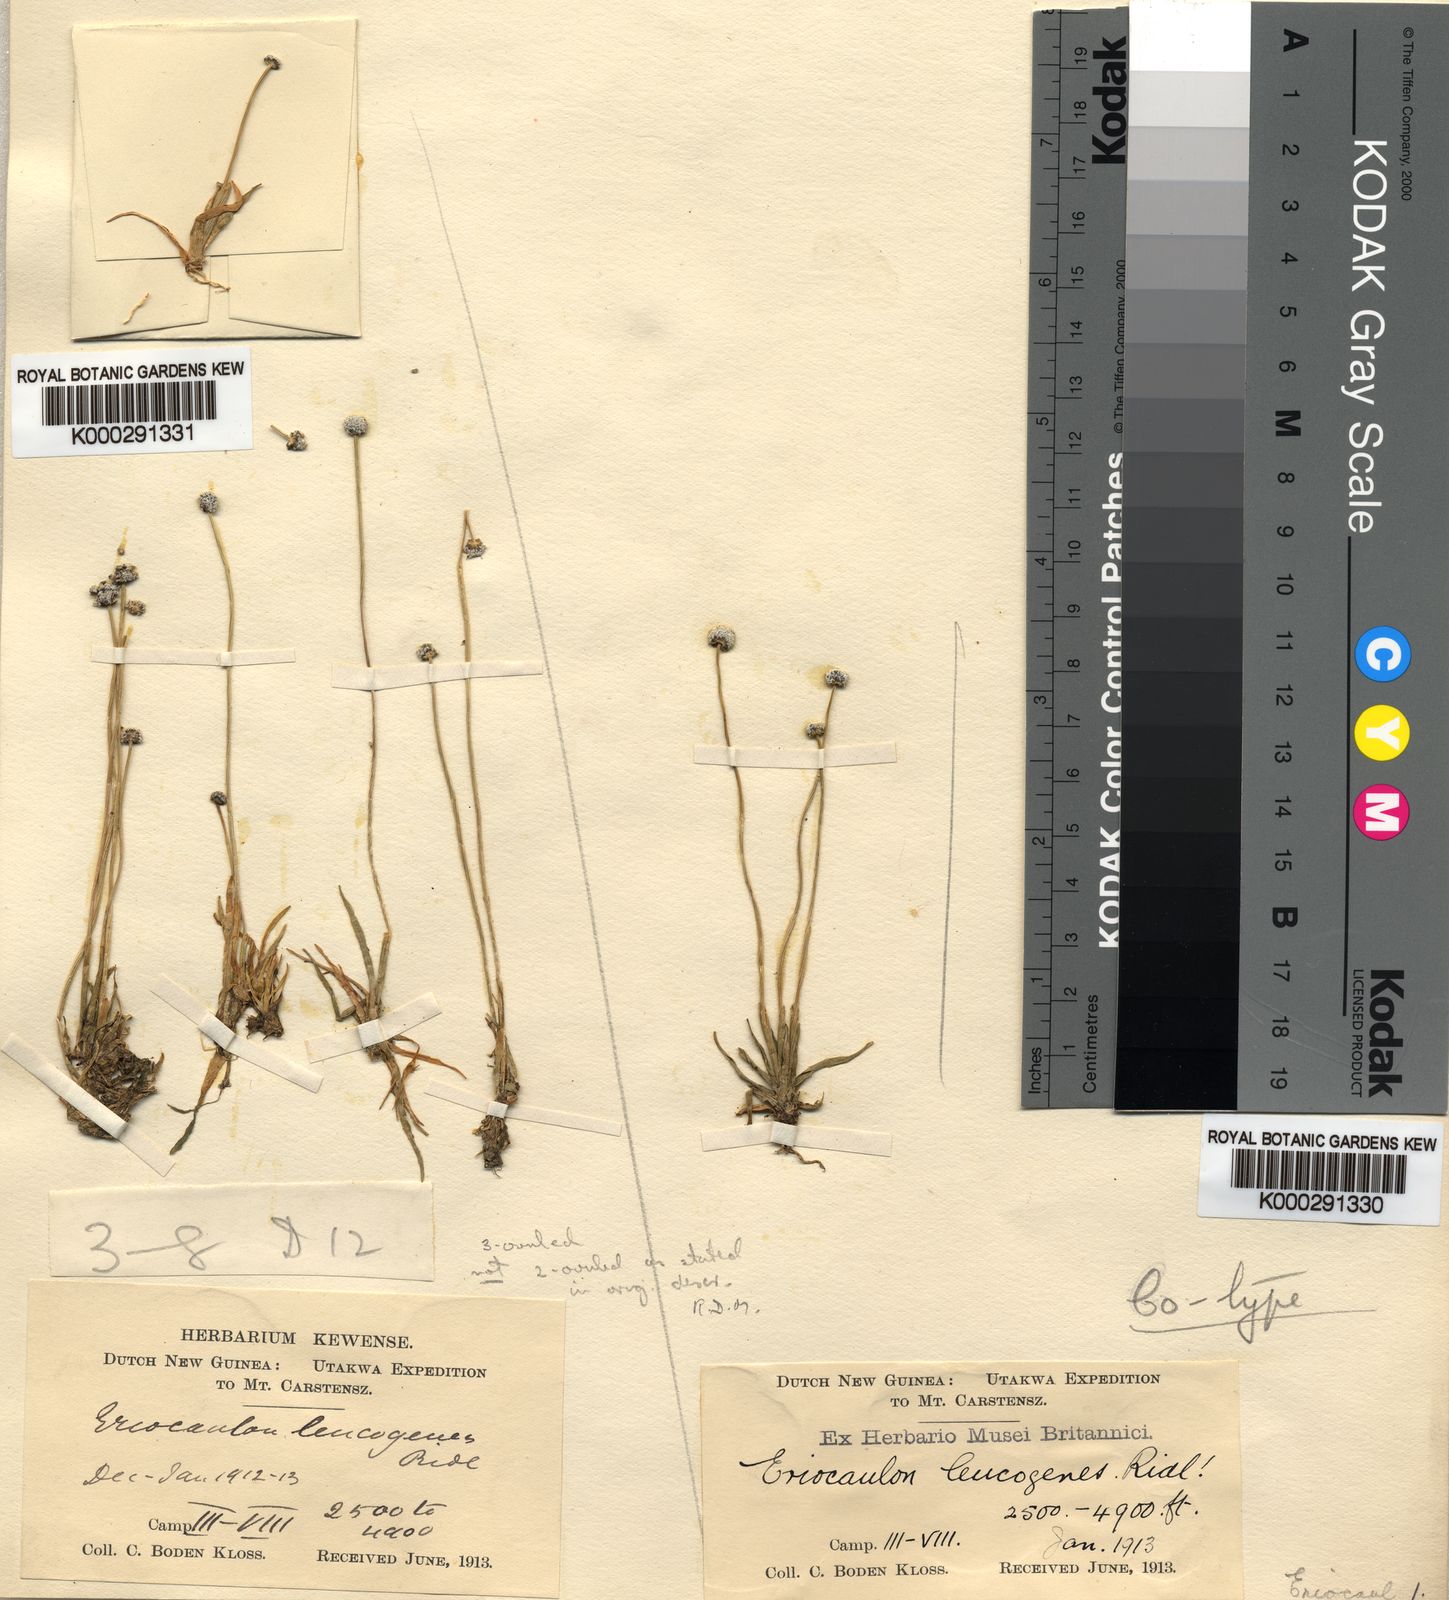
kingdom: Plantae
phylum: Tracheophyta
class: Liliopsida
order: Poales
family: Eriocaulaceae
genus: Eriocaulon
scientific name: Eriocaulon leucogenes
